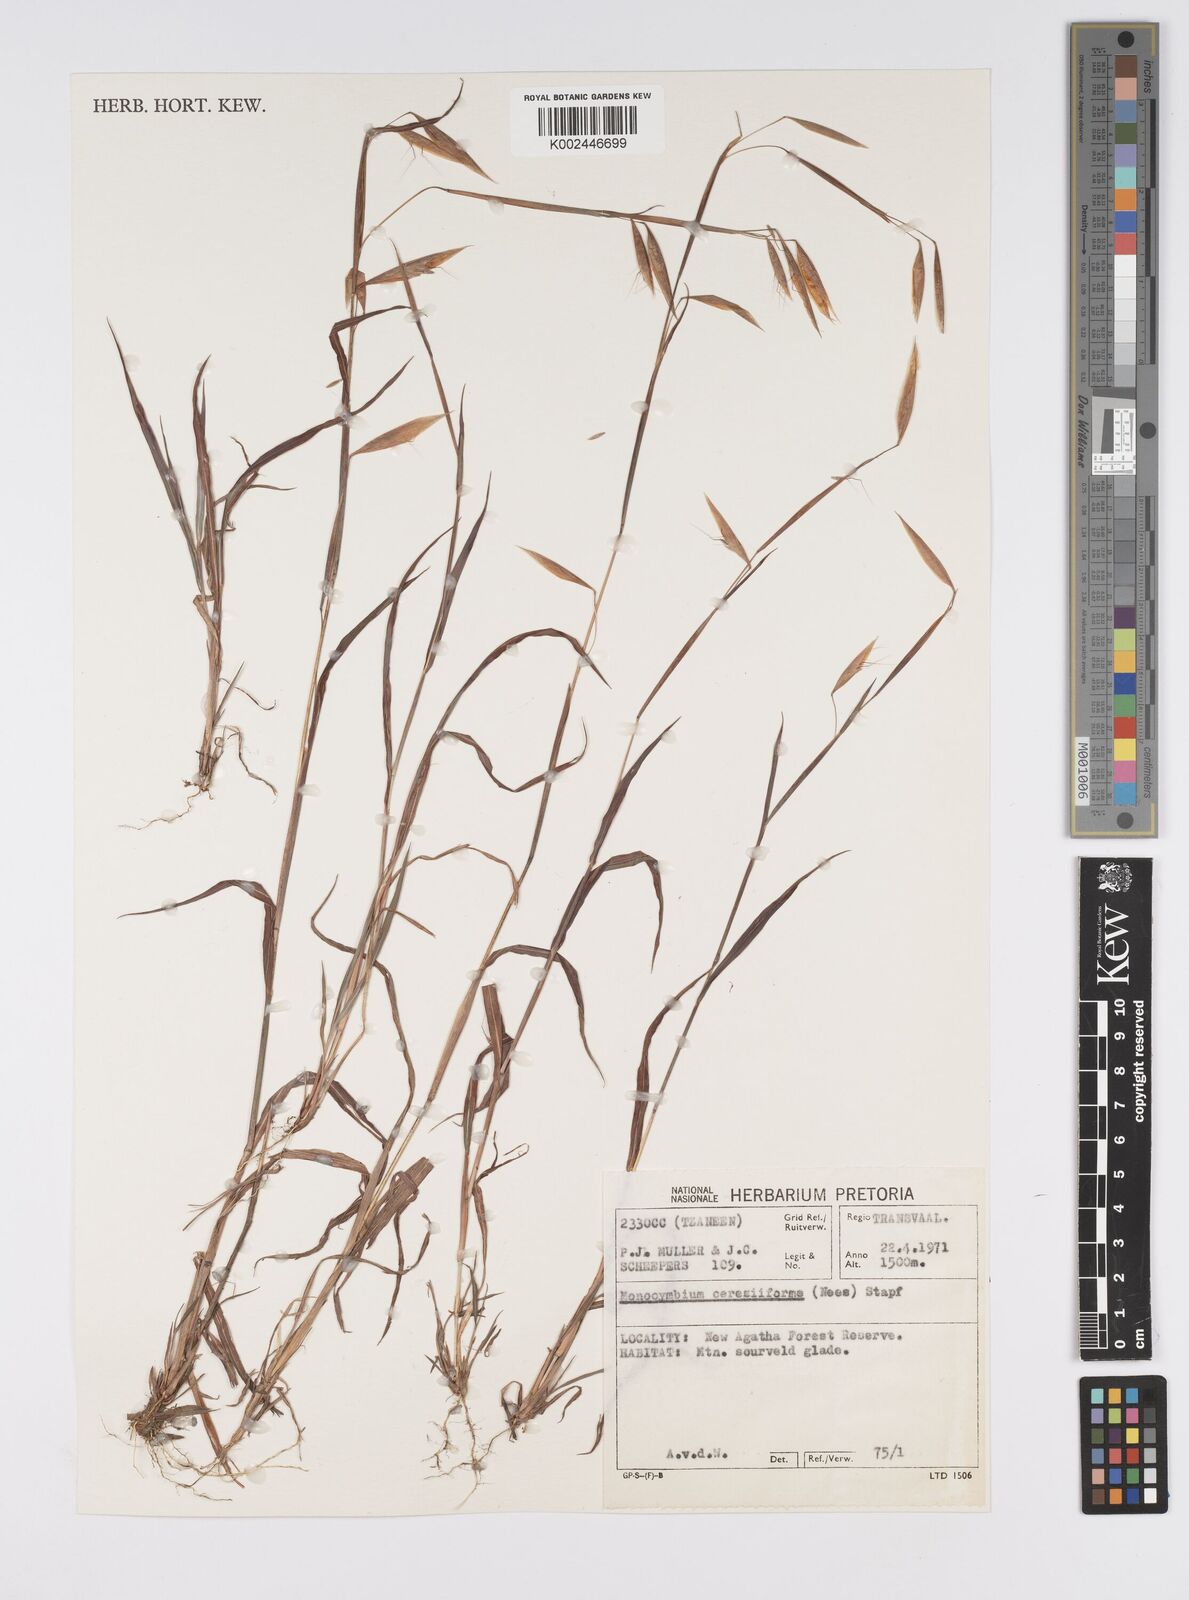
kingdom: Plantae
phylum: Tracheophyta
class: Liliopsida
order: Poales
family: Poaceae
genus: Monocymbium
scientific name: Monocymbium ceresiiforme
